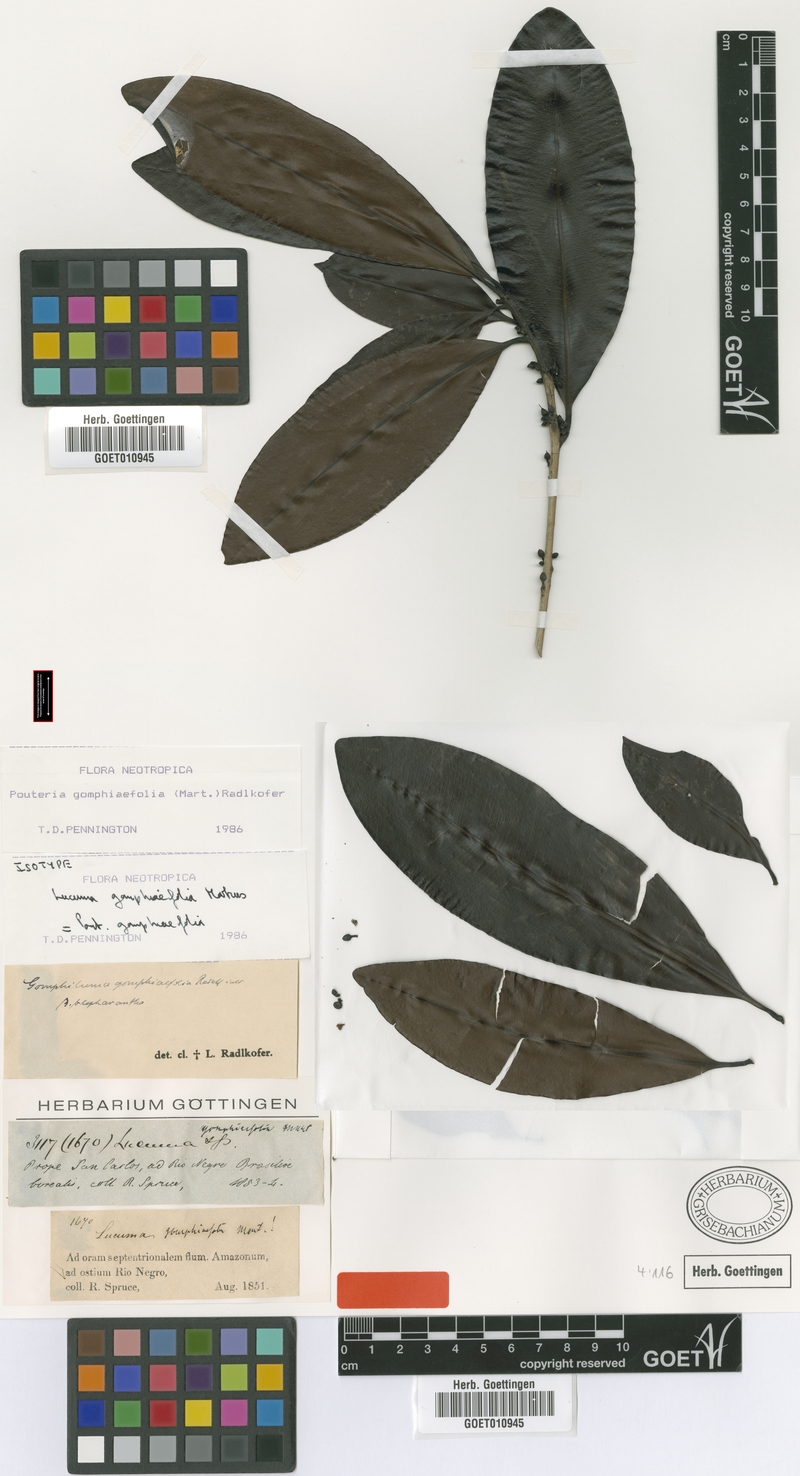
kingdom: Plantae
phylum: Tracheophyta
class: Magnoliopsida
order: Ericales
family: Sapotaceae
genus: Pouteria
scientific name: Pouteria gomphiifolia
